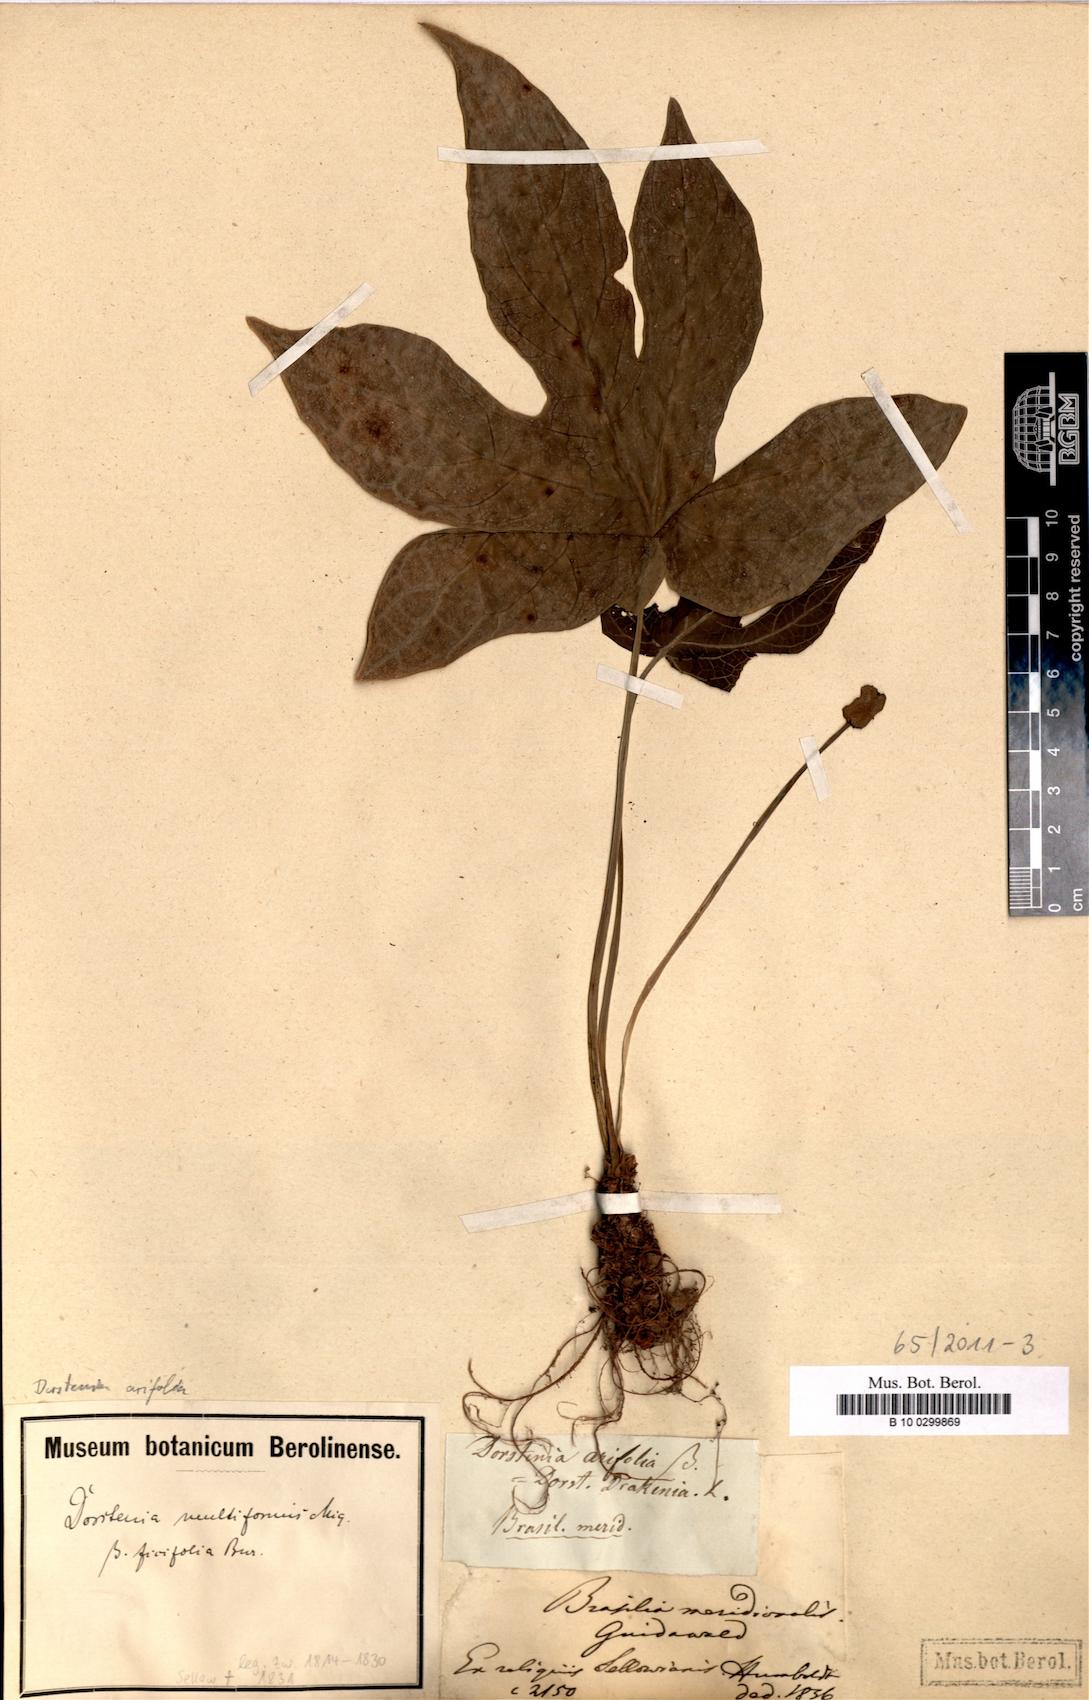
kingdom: Plantae
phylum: Tracheophyta
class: Magnoliopsida
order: Rosales
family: Moraceae
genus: Dorstenia
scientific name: Dorstenia arifolia
